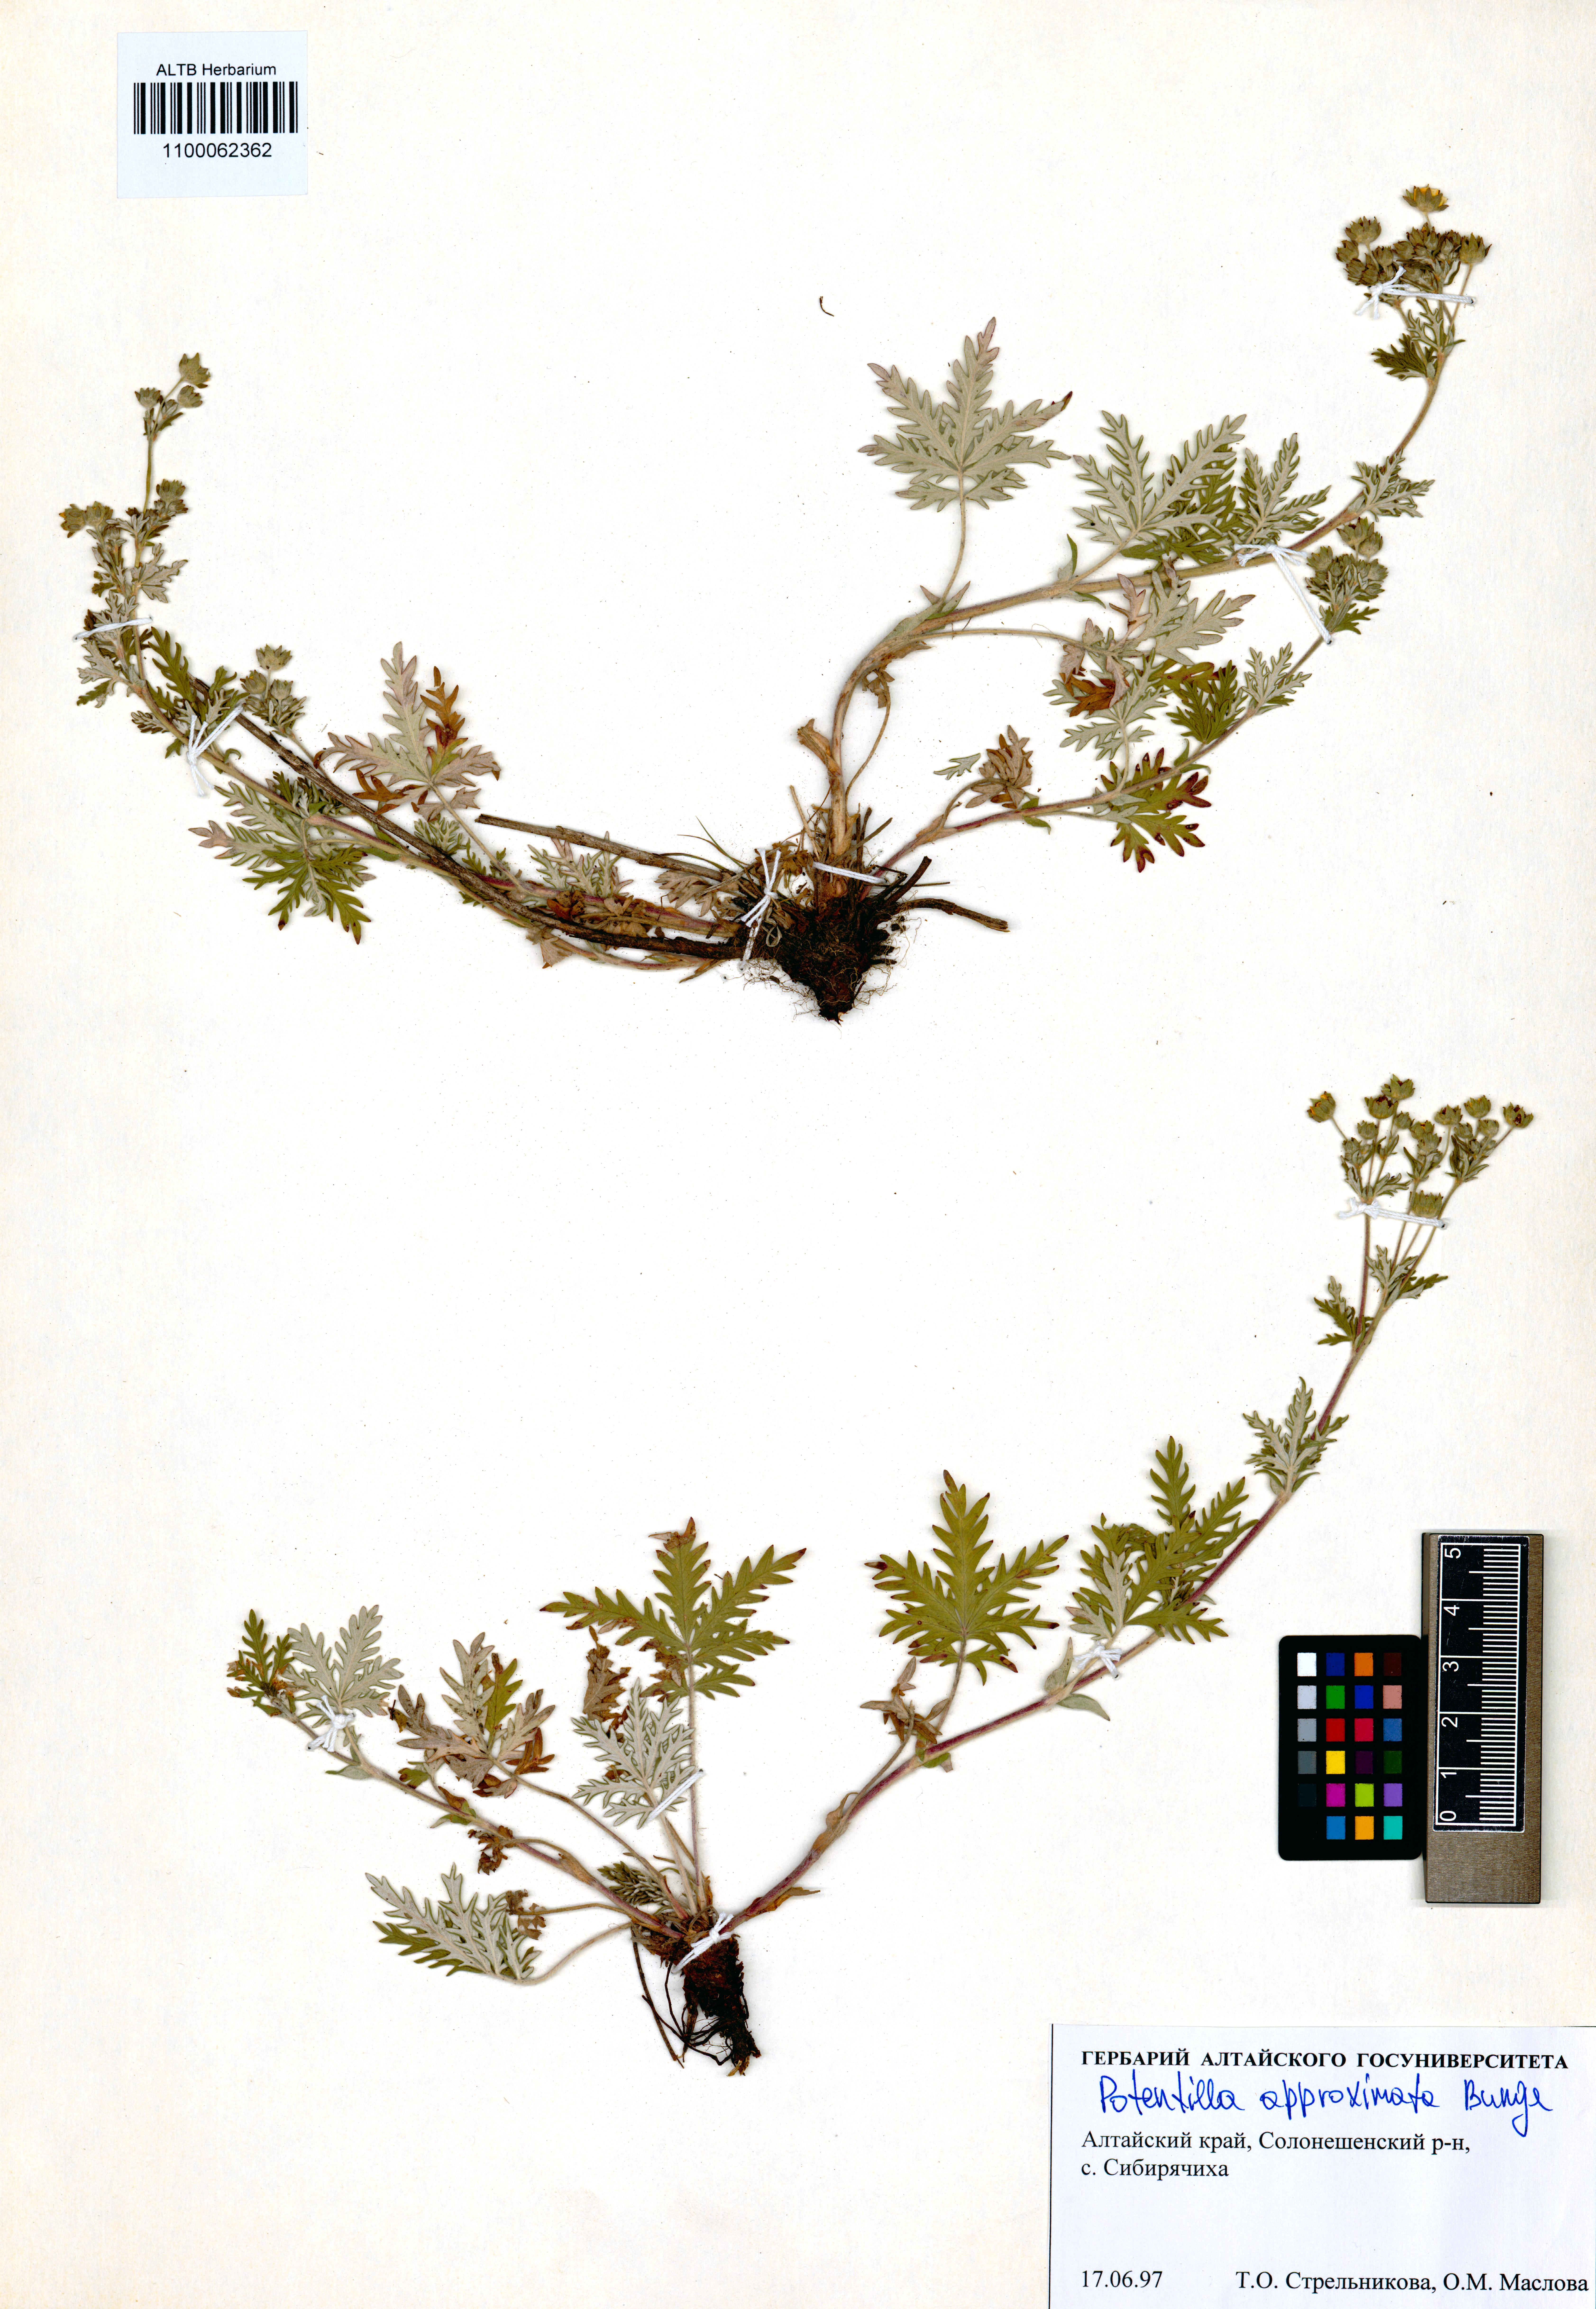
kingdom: Plantae
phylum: Tracheophyta
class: Magnoliopsida
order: Rosales
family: Rosaceae
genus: Potentilla
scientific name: Potentilla conferta
